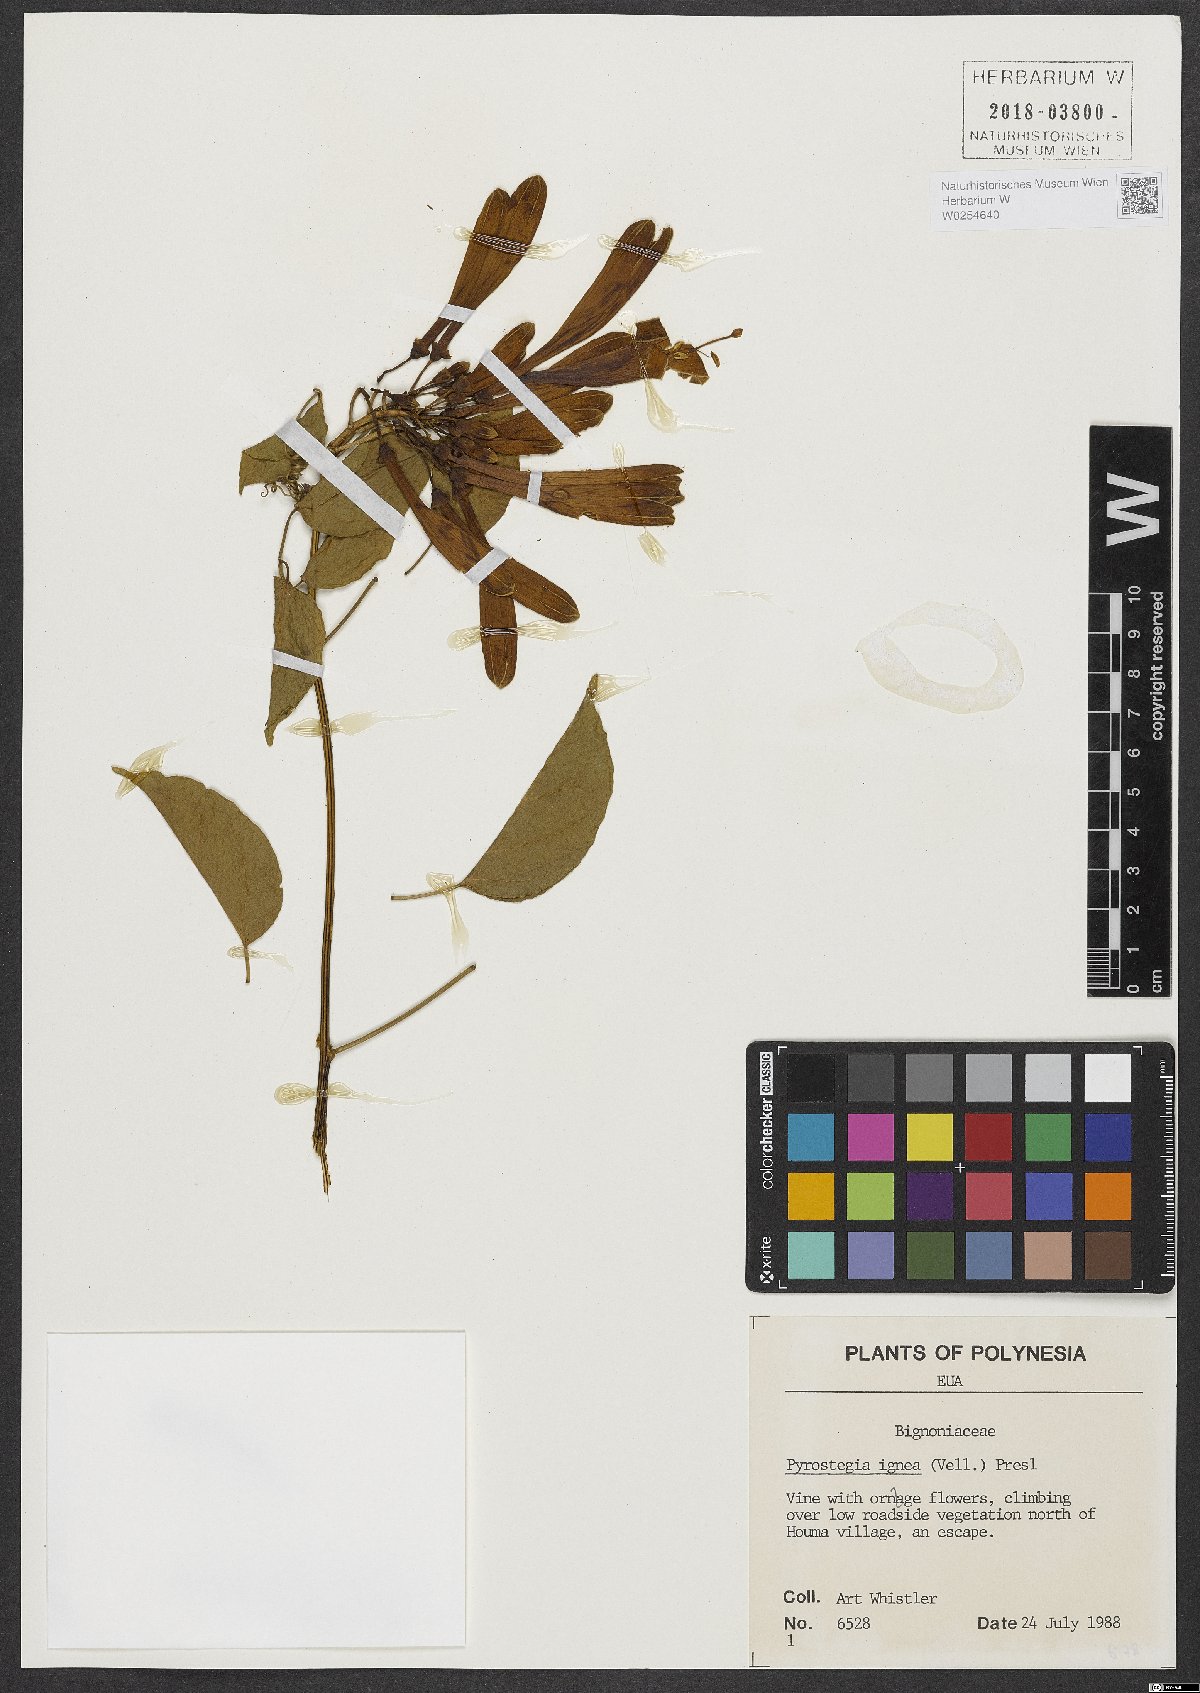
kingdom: Plantae
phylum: Tracheophyta
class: Magnoliopsida
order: Lamiales
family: Bignoniaceae
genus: Pyrostegia
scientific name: Pyrostegia venusta
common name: Flamevine
